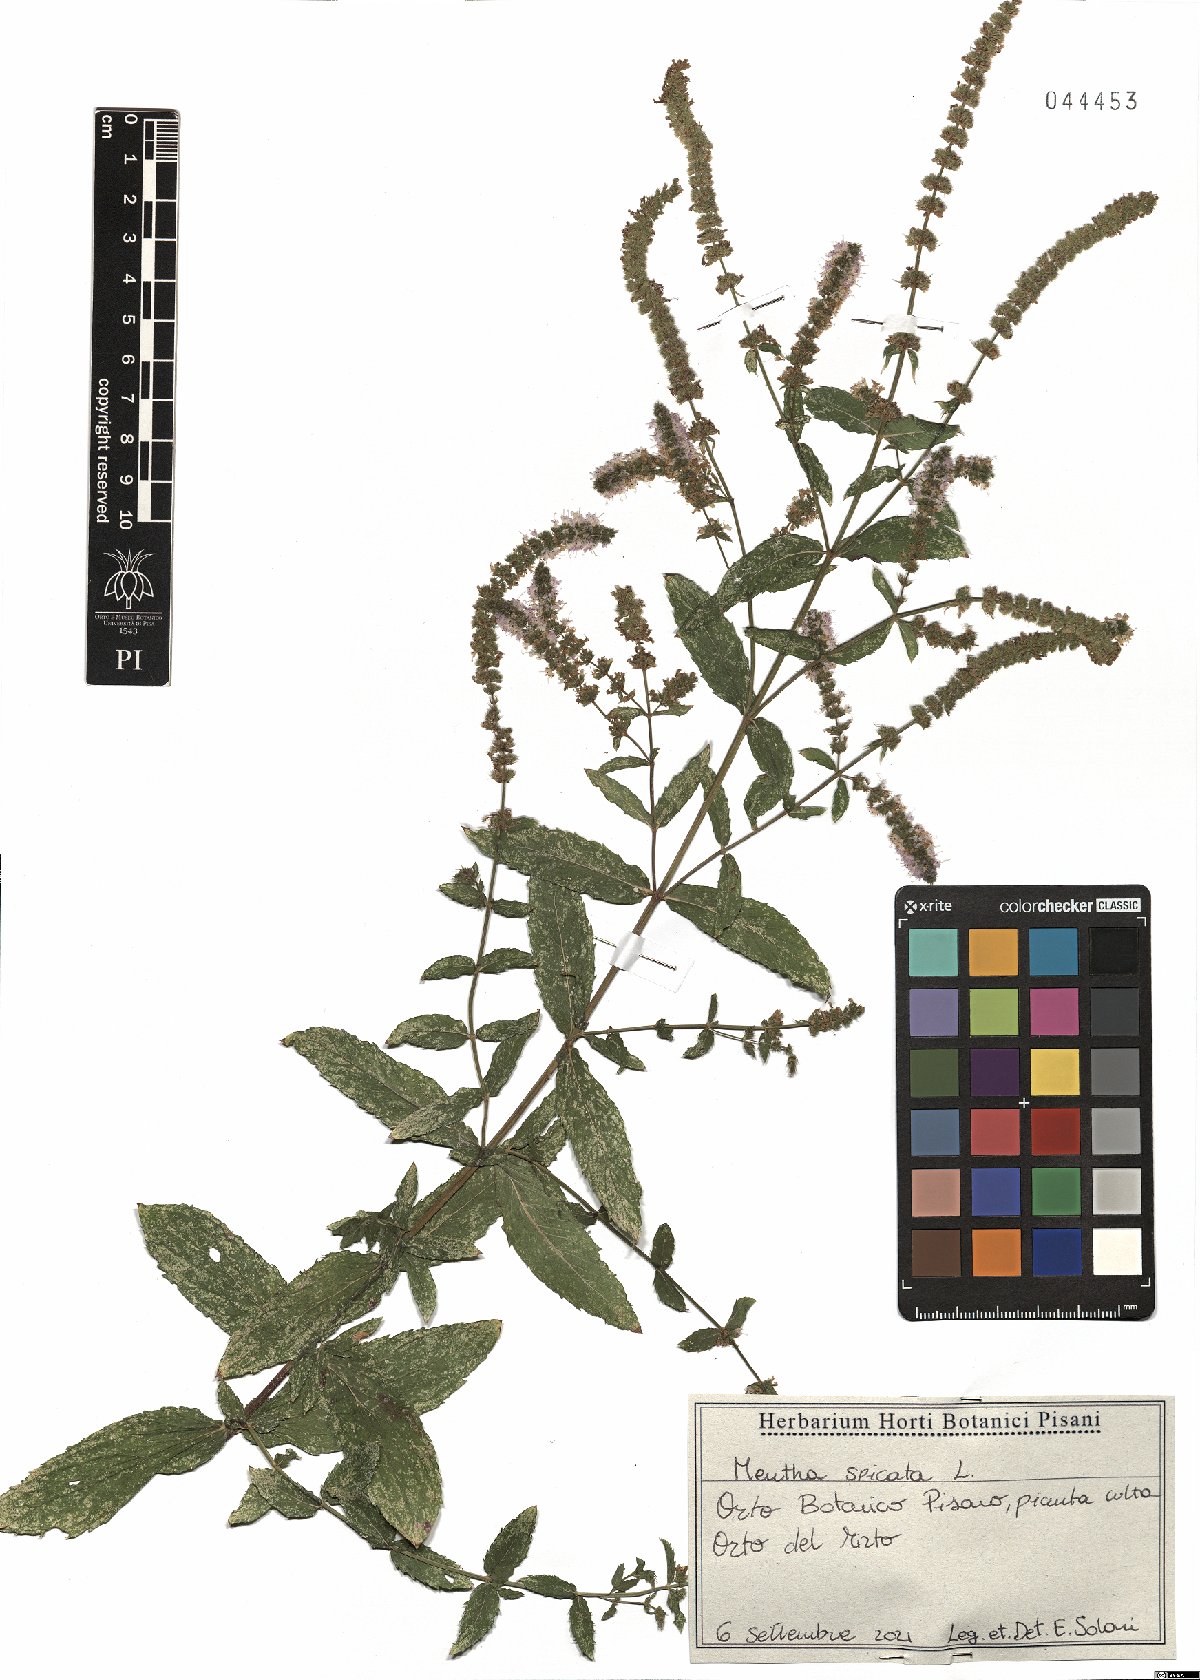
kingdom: Plantae
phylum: Tracheophyta
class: Magnoliopsida
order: Lamiales
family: Lamiaceae
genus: Mentha
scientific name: Mentha spicata
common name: Spearmint
